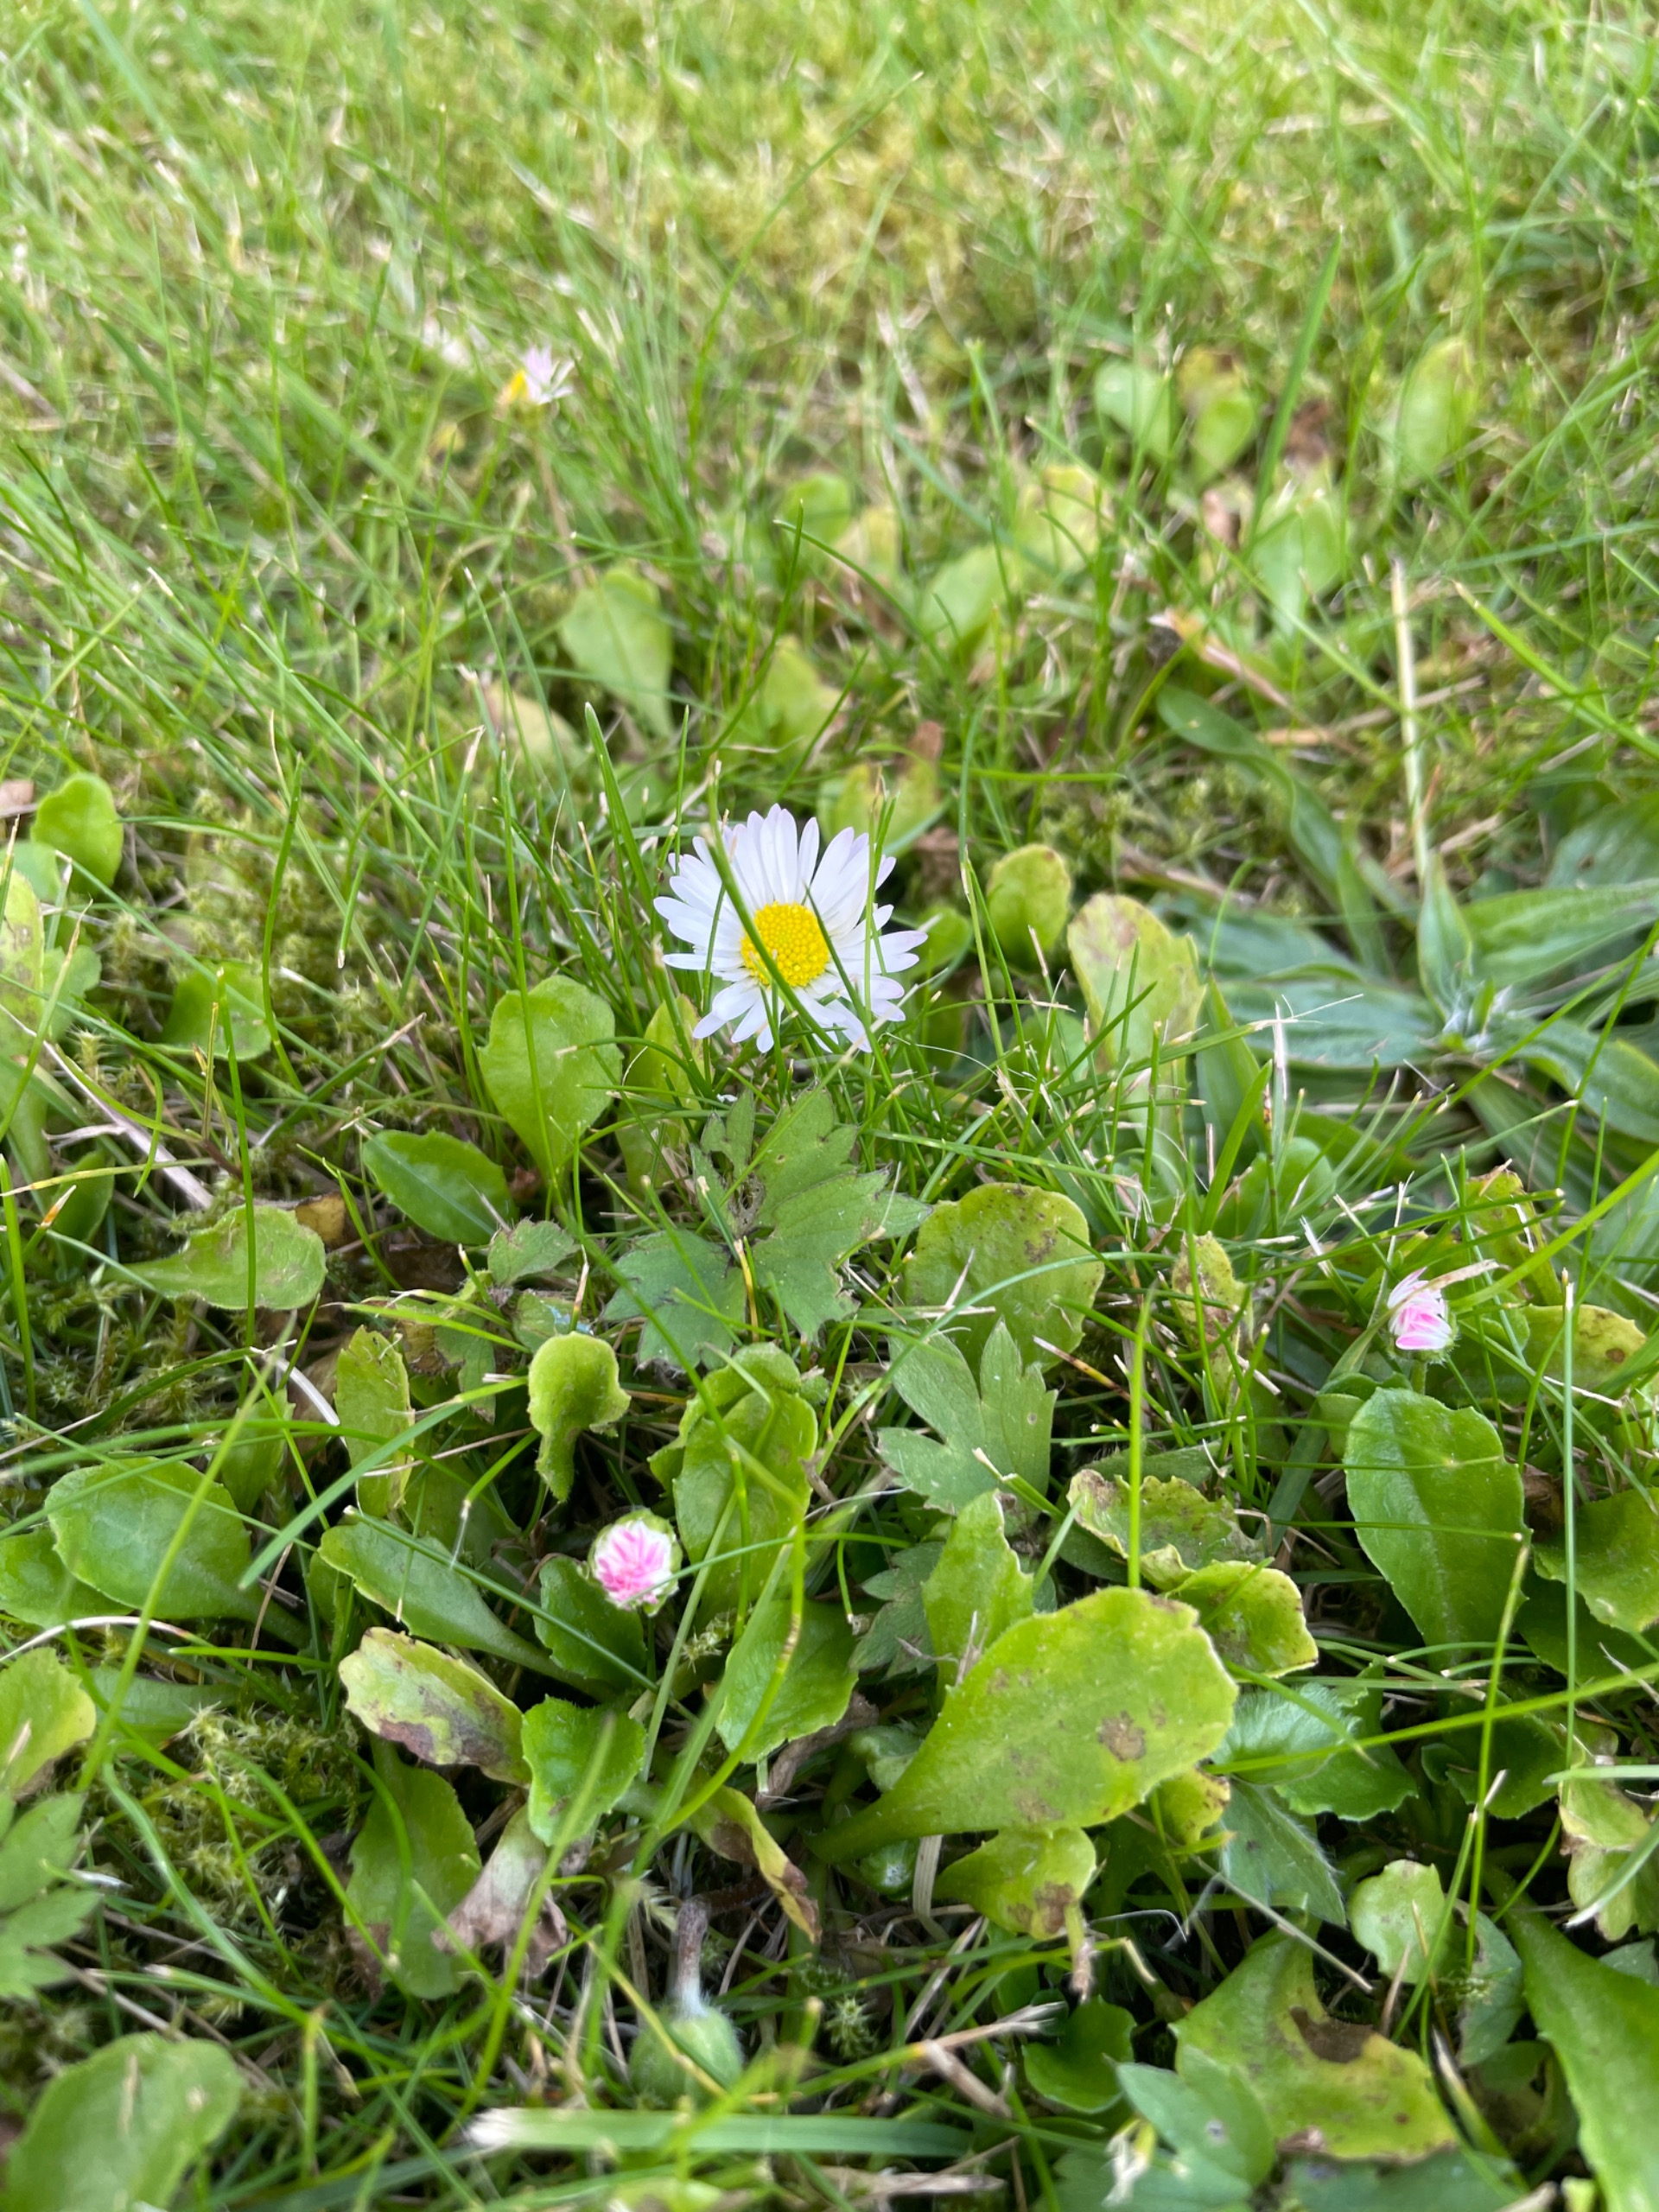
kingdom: Plantae
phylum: Tracheophyta
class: Magnoliopsida
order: Asterales
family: Asteraceae
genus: Bellis
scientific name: Bellis perennis
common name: Tusindfryd
